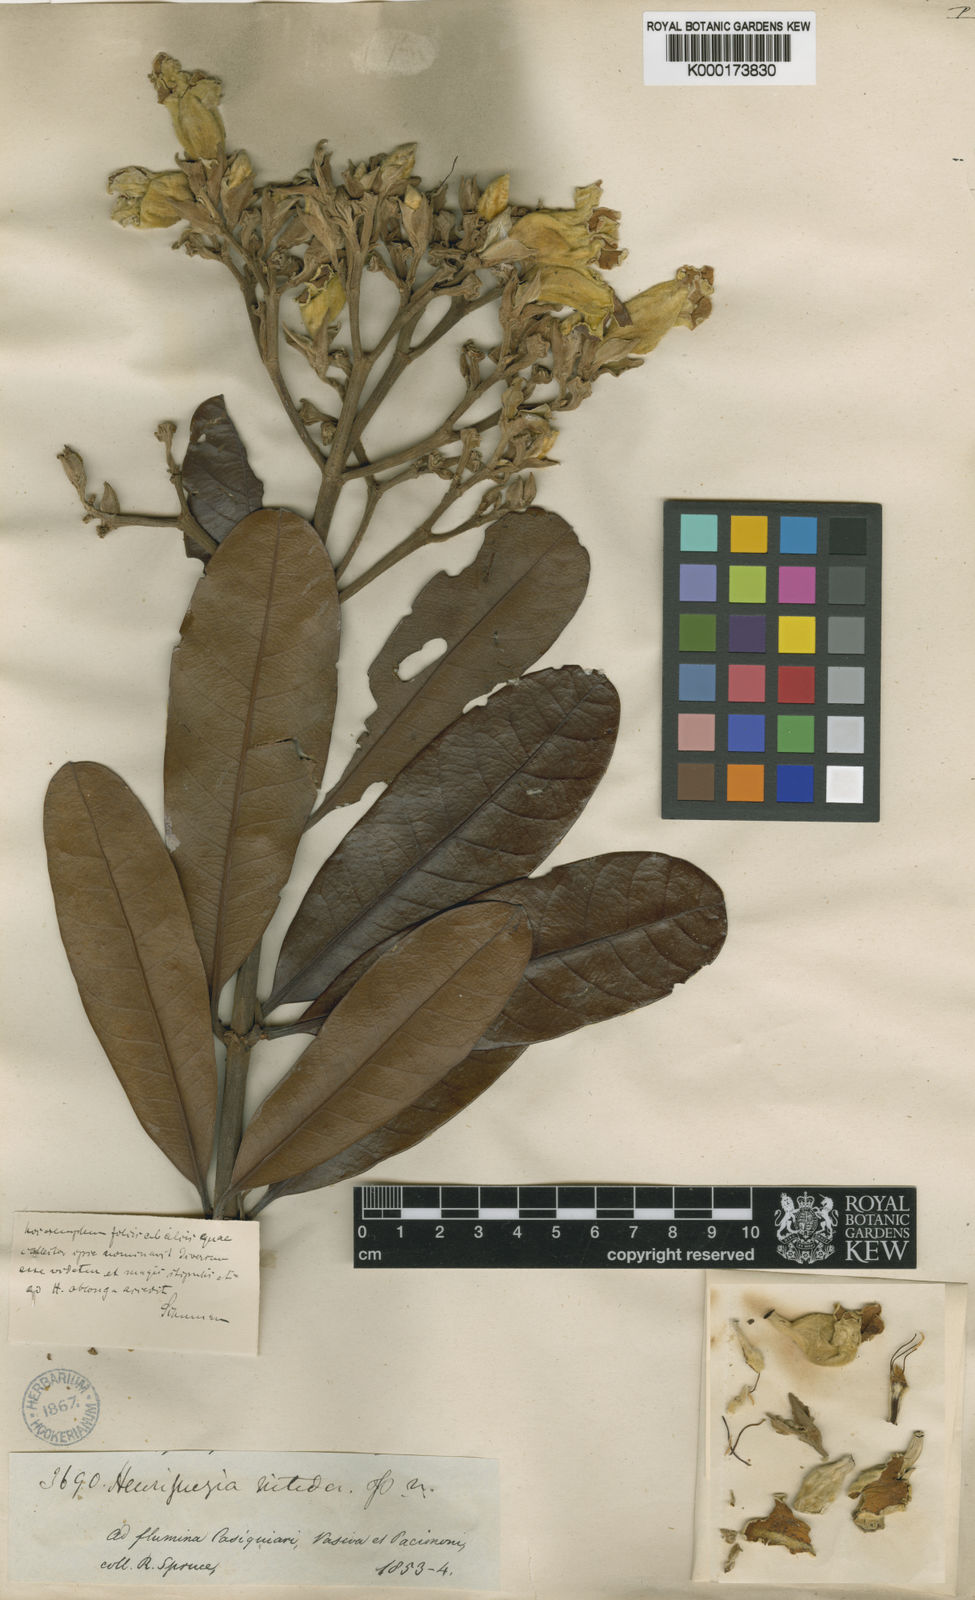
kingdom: Plantae
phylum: Tracheophyta
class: Magnoliopsida
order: Gentianales
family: Rubiaceae
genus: Henriquezia
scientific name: Henriquezia nitida
